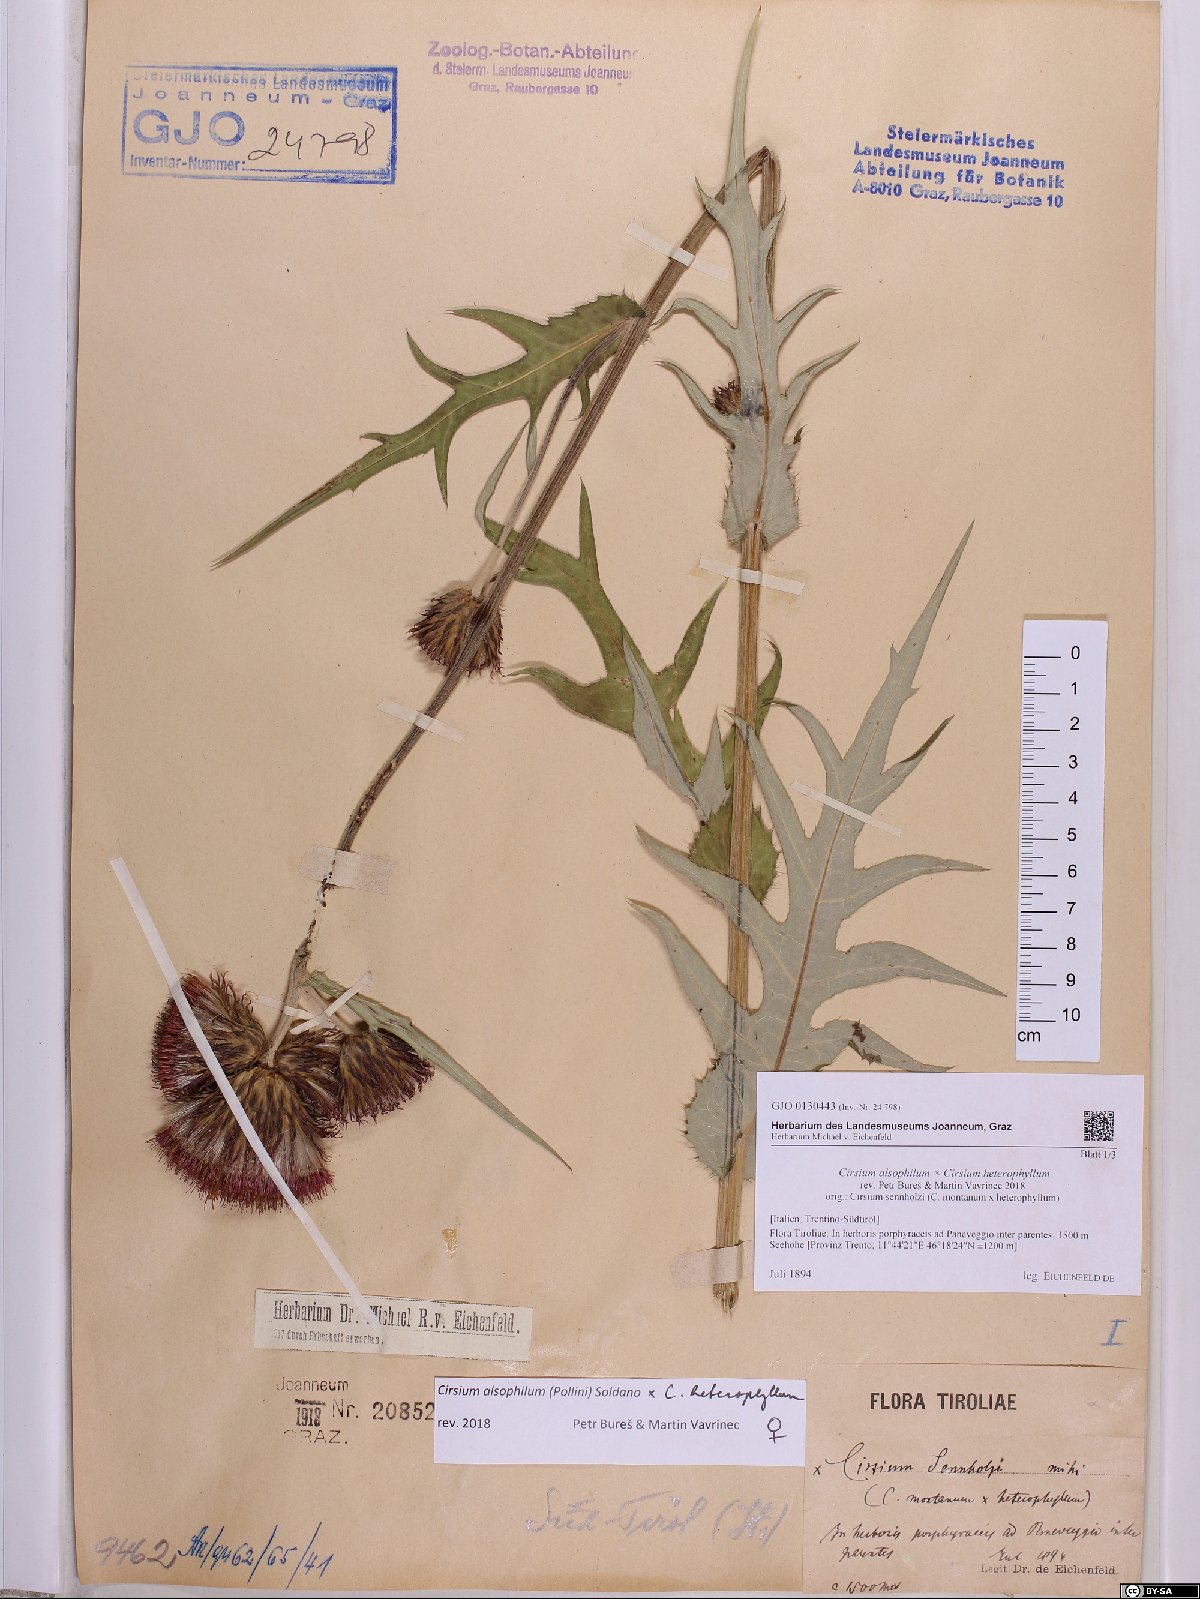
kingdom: Plantae
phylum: Tracheophyta
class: Magnoliopsida
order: Asterales
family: Asteraceae
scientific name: Asteraceae
